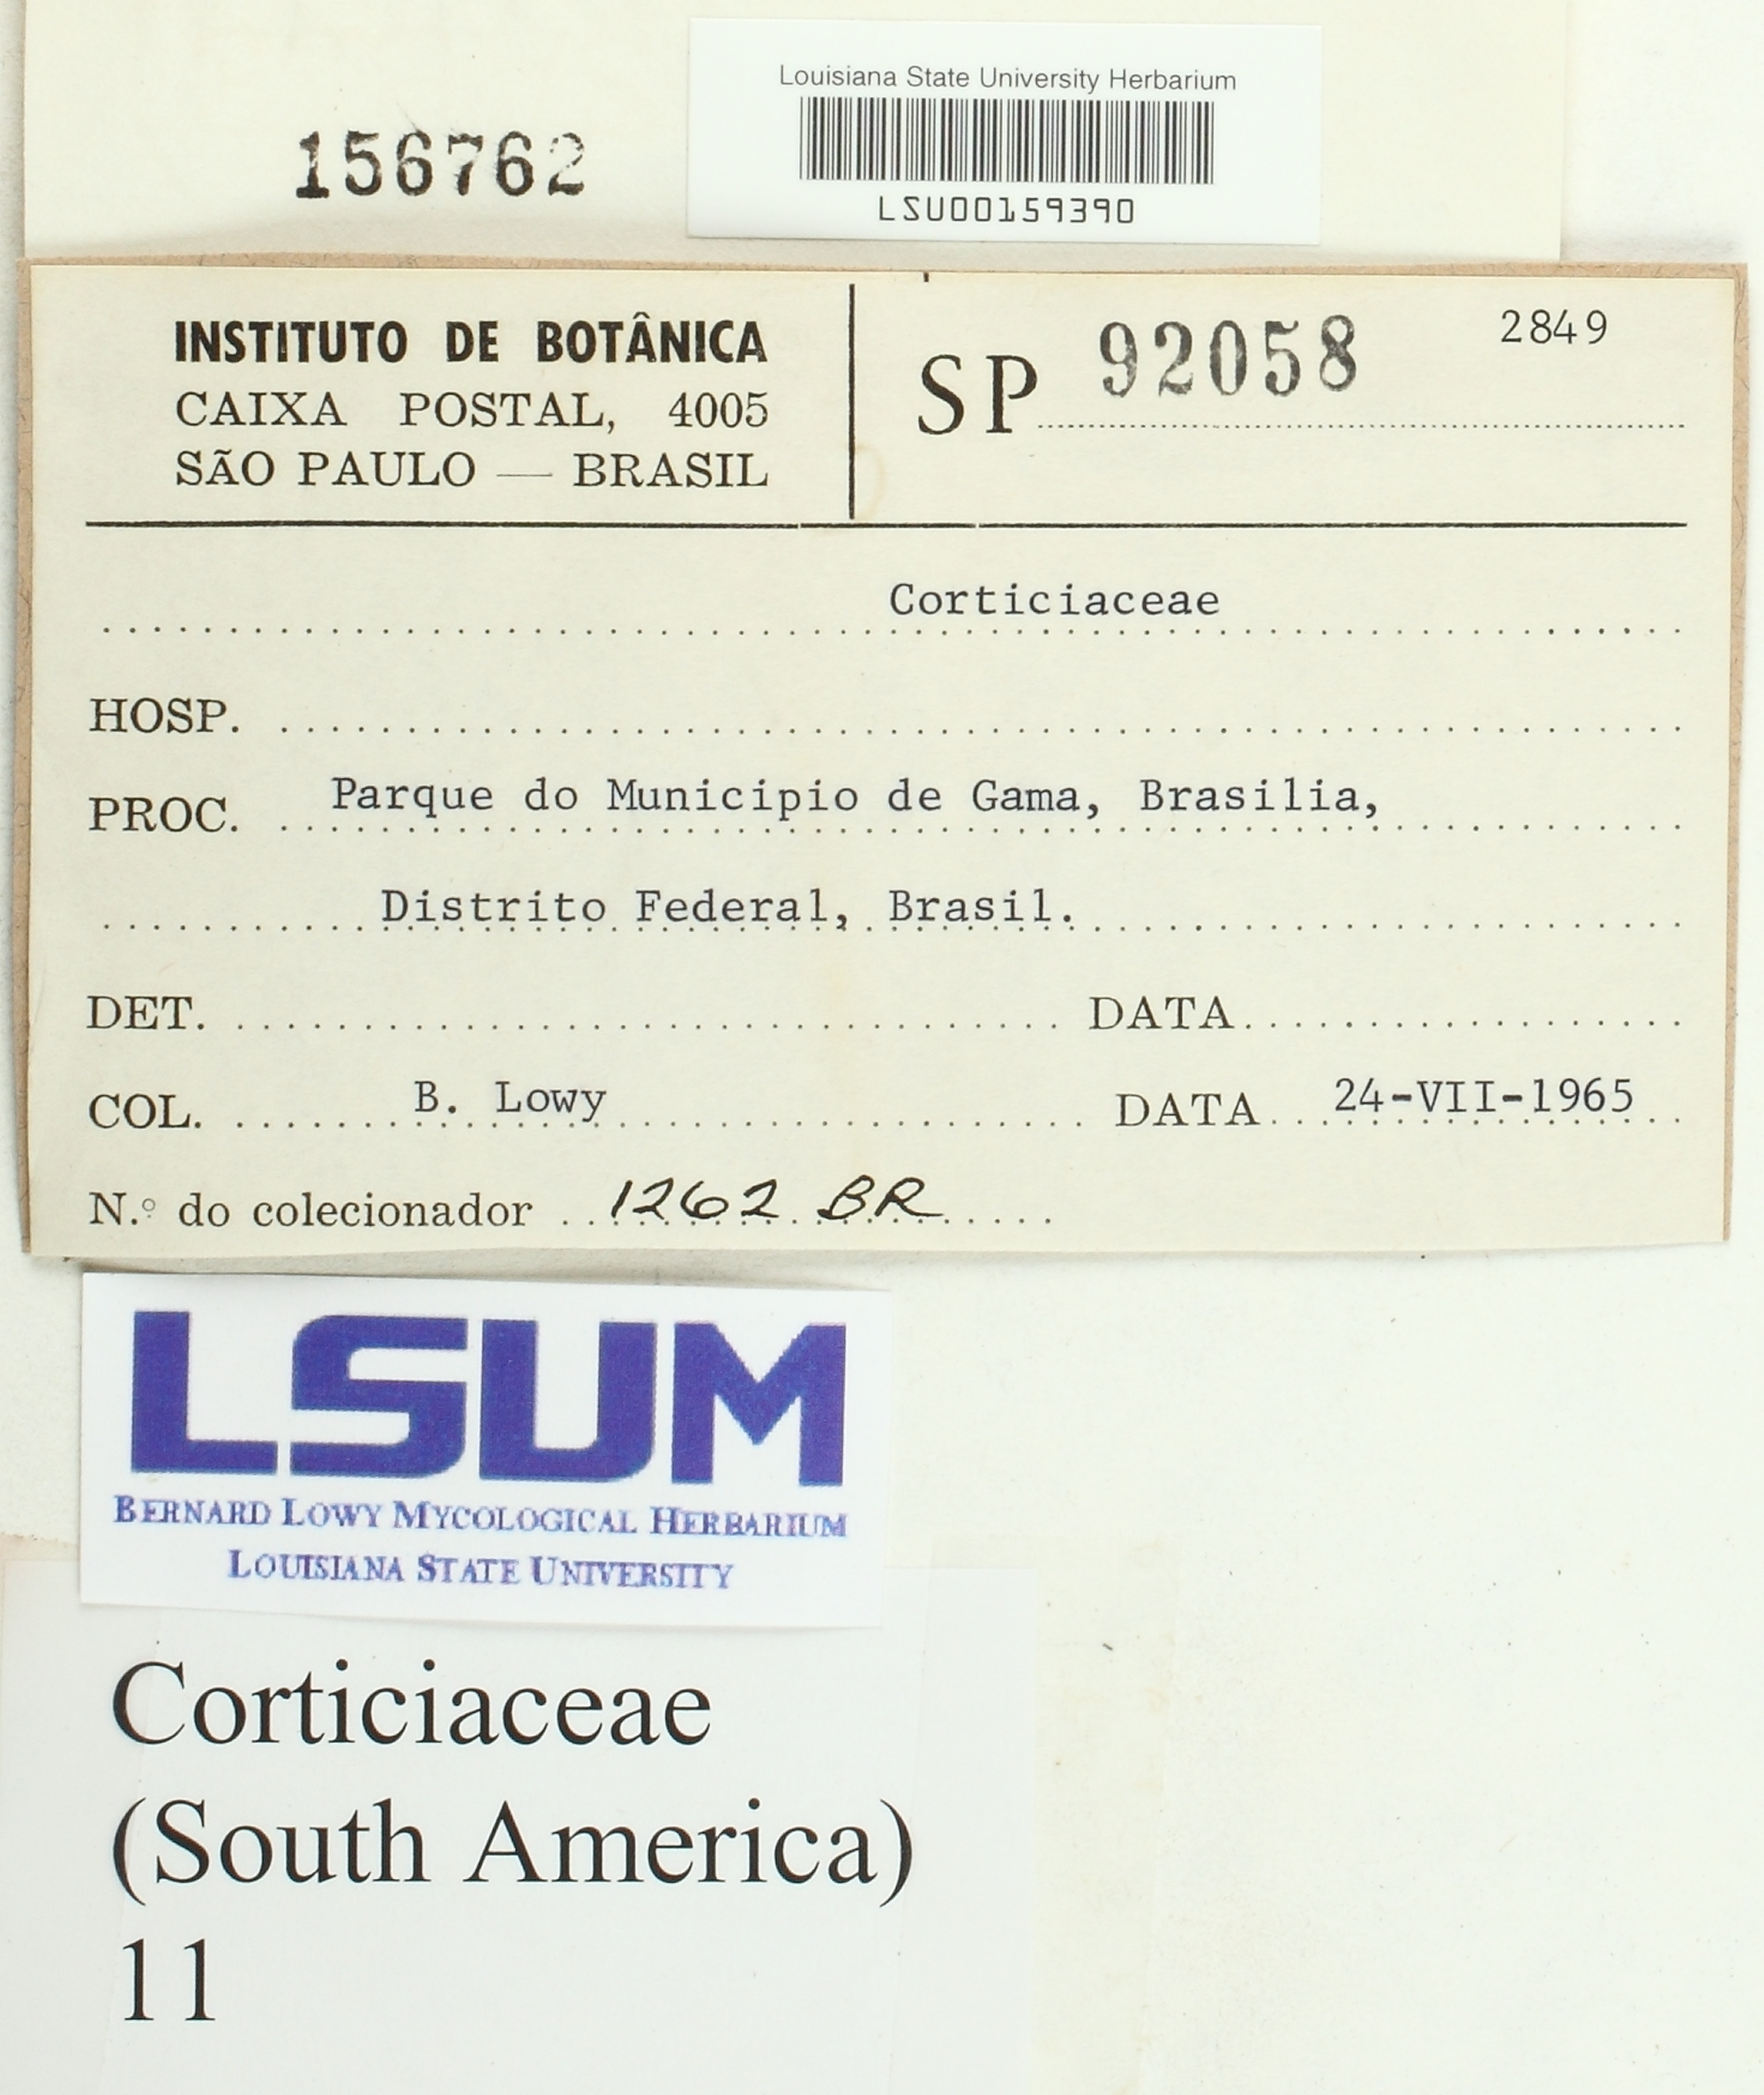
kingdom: Fungi
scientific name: Fungi
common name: Fungi
